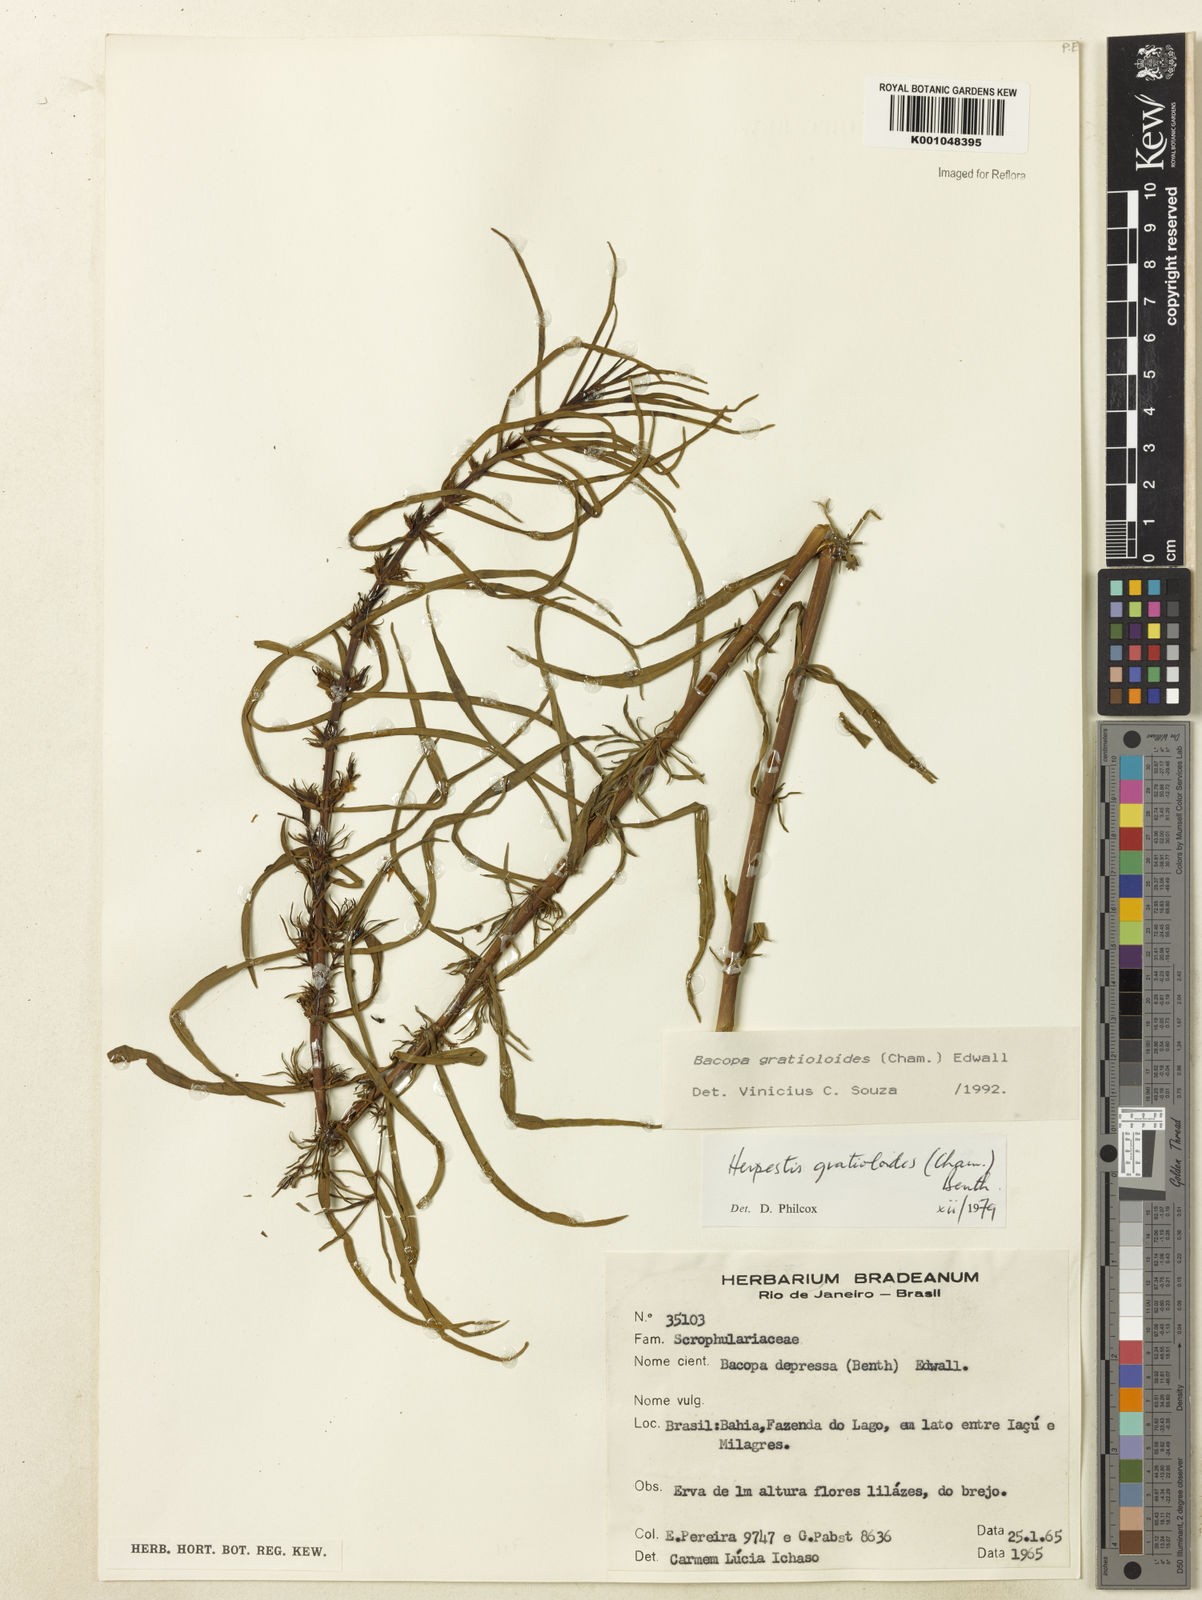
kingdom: Plantae
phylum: Tracheophyta
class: Magnoliopsida
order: Lamiales
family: Plantaginaceae
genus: Bacopa
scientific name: Bacopa
